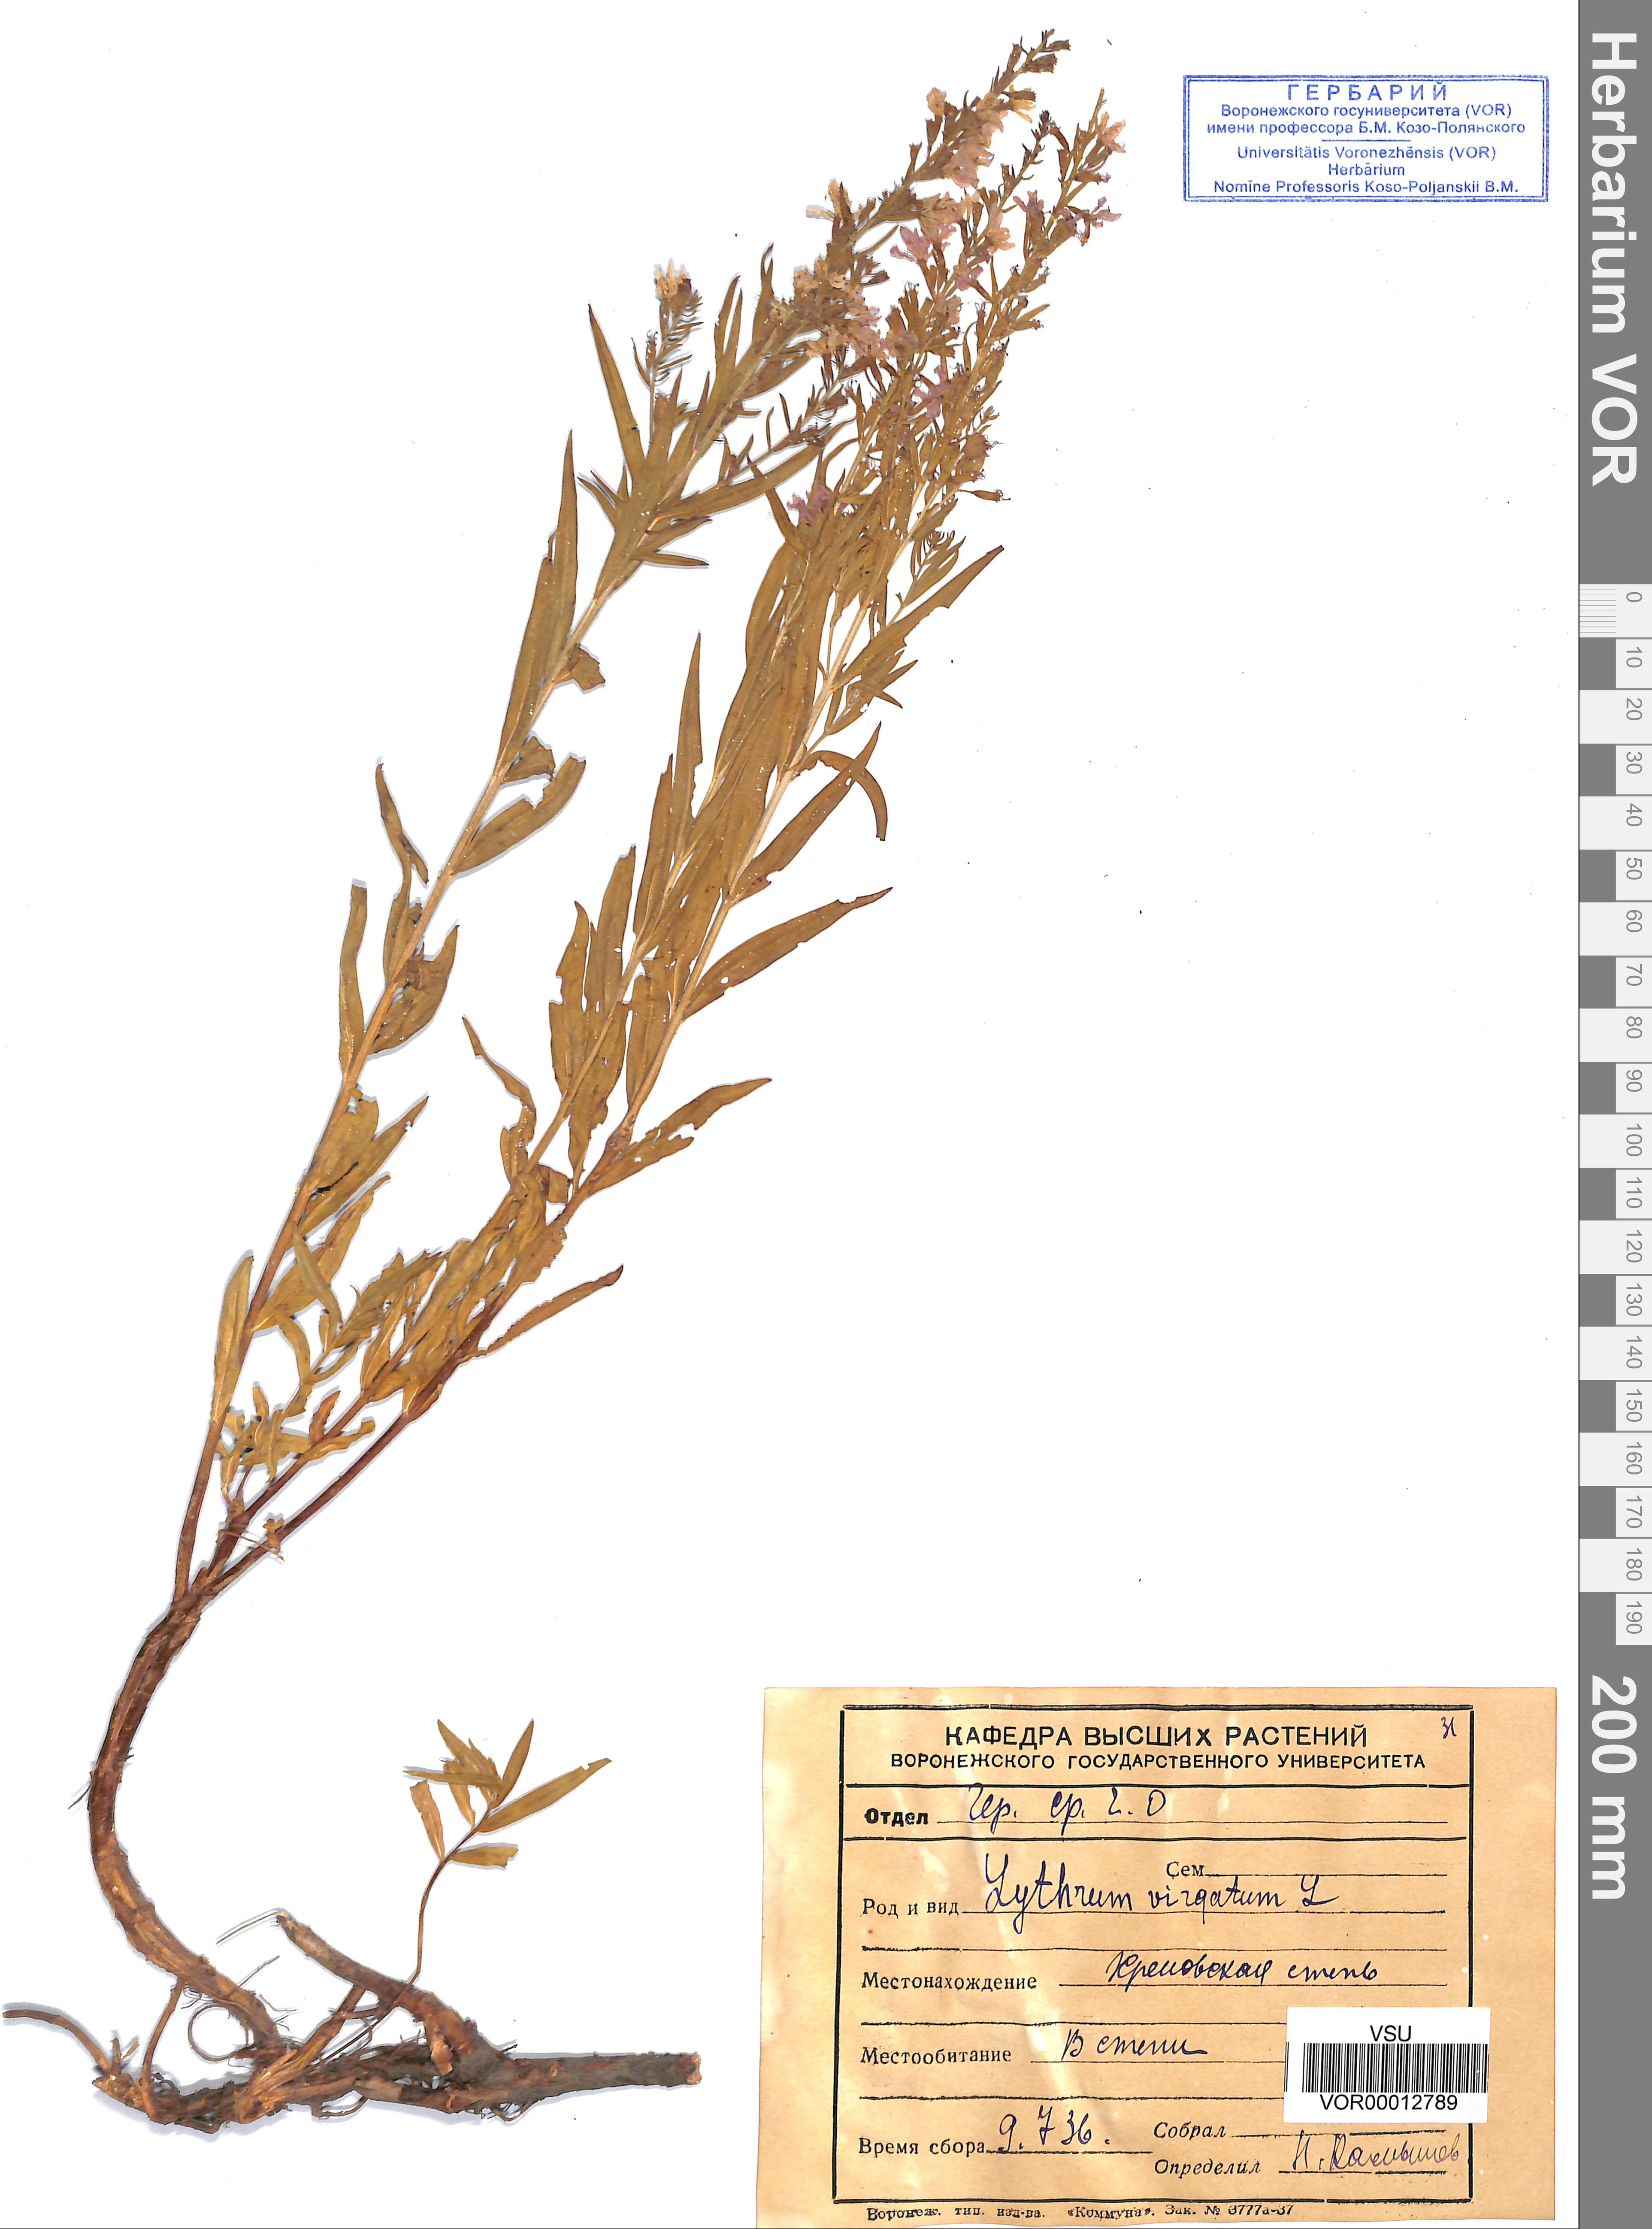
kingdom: Plantae
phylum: Tracheophyta
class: Magnoliopsida
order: Myrtales
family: Lythraceae
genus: Lythrum
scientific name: Lythrum virgatum
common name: European wand loosestrife
